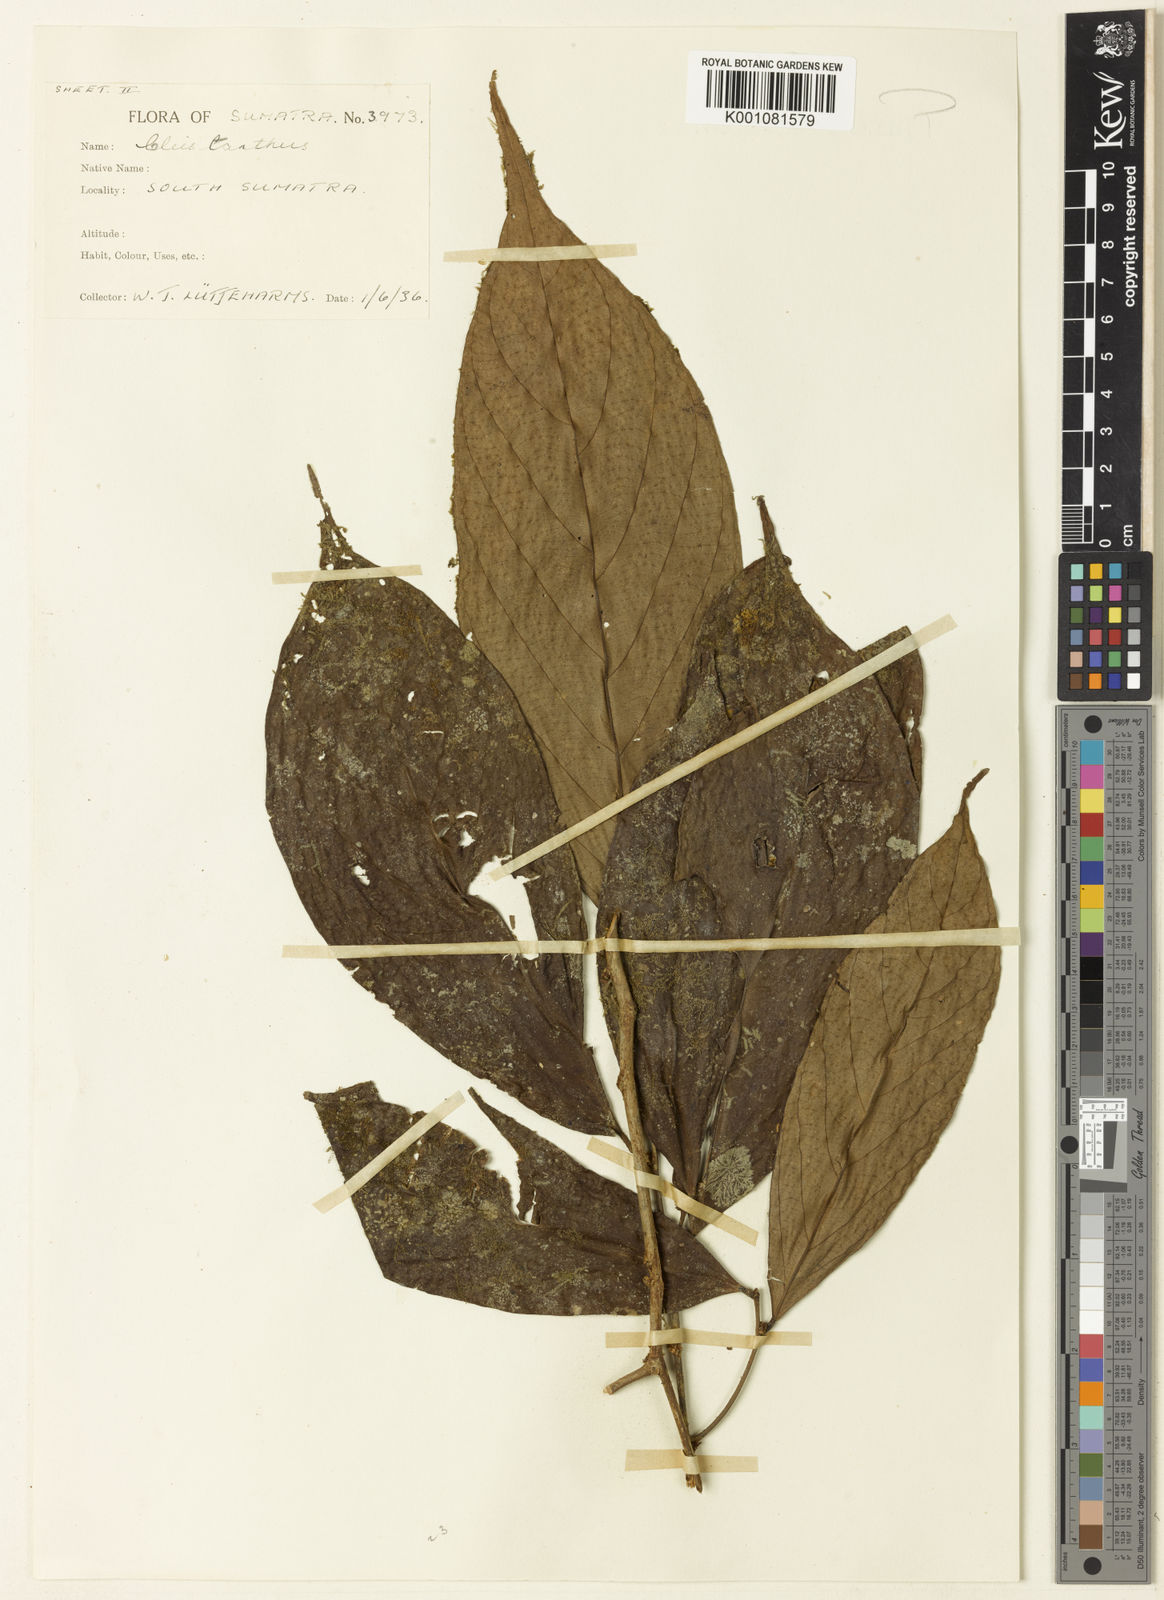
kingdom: Plantae
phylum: Tracheophyta
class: Magnoliopsida
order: Malpighiales
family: Phyllanthaceae
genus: Cleistanthus
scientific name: Cleistanthus tenerifolius
